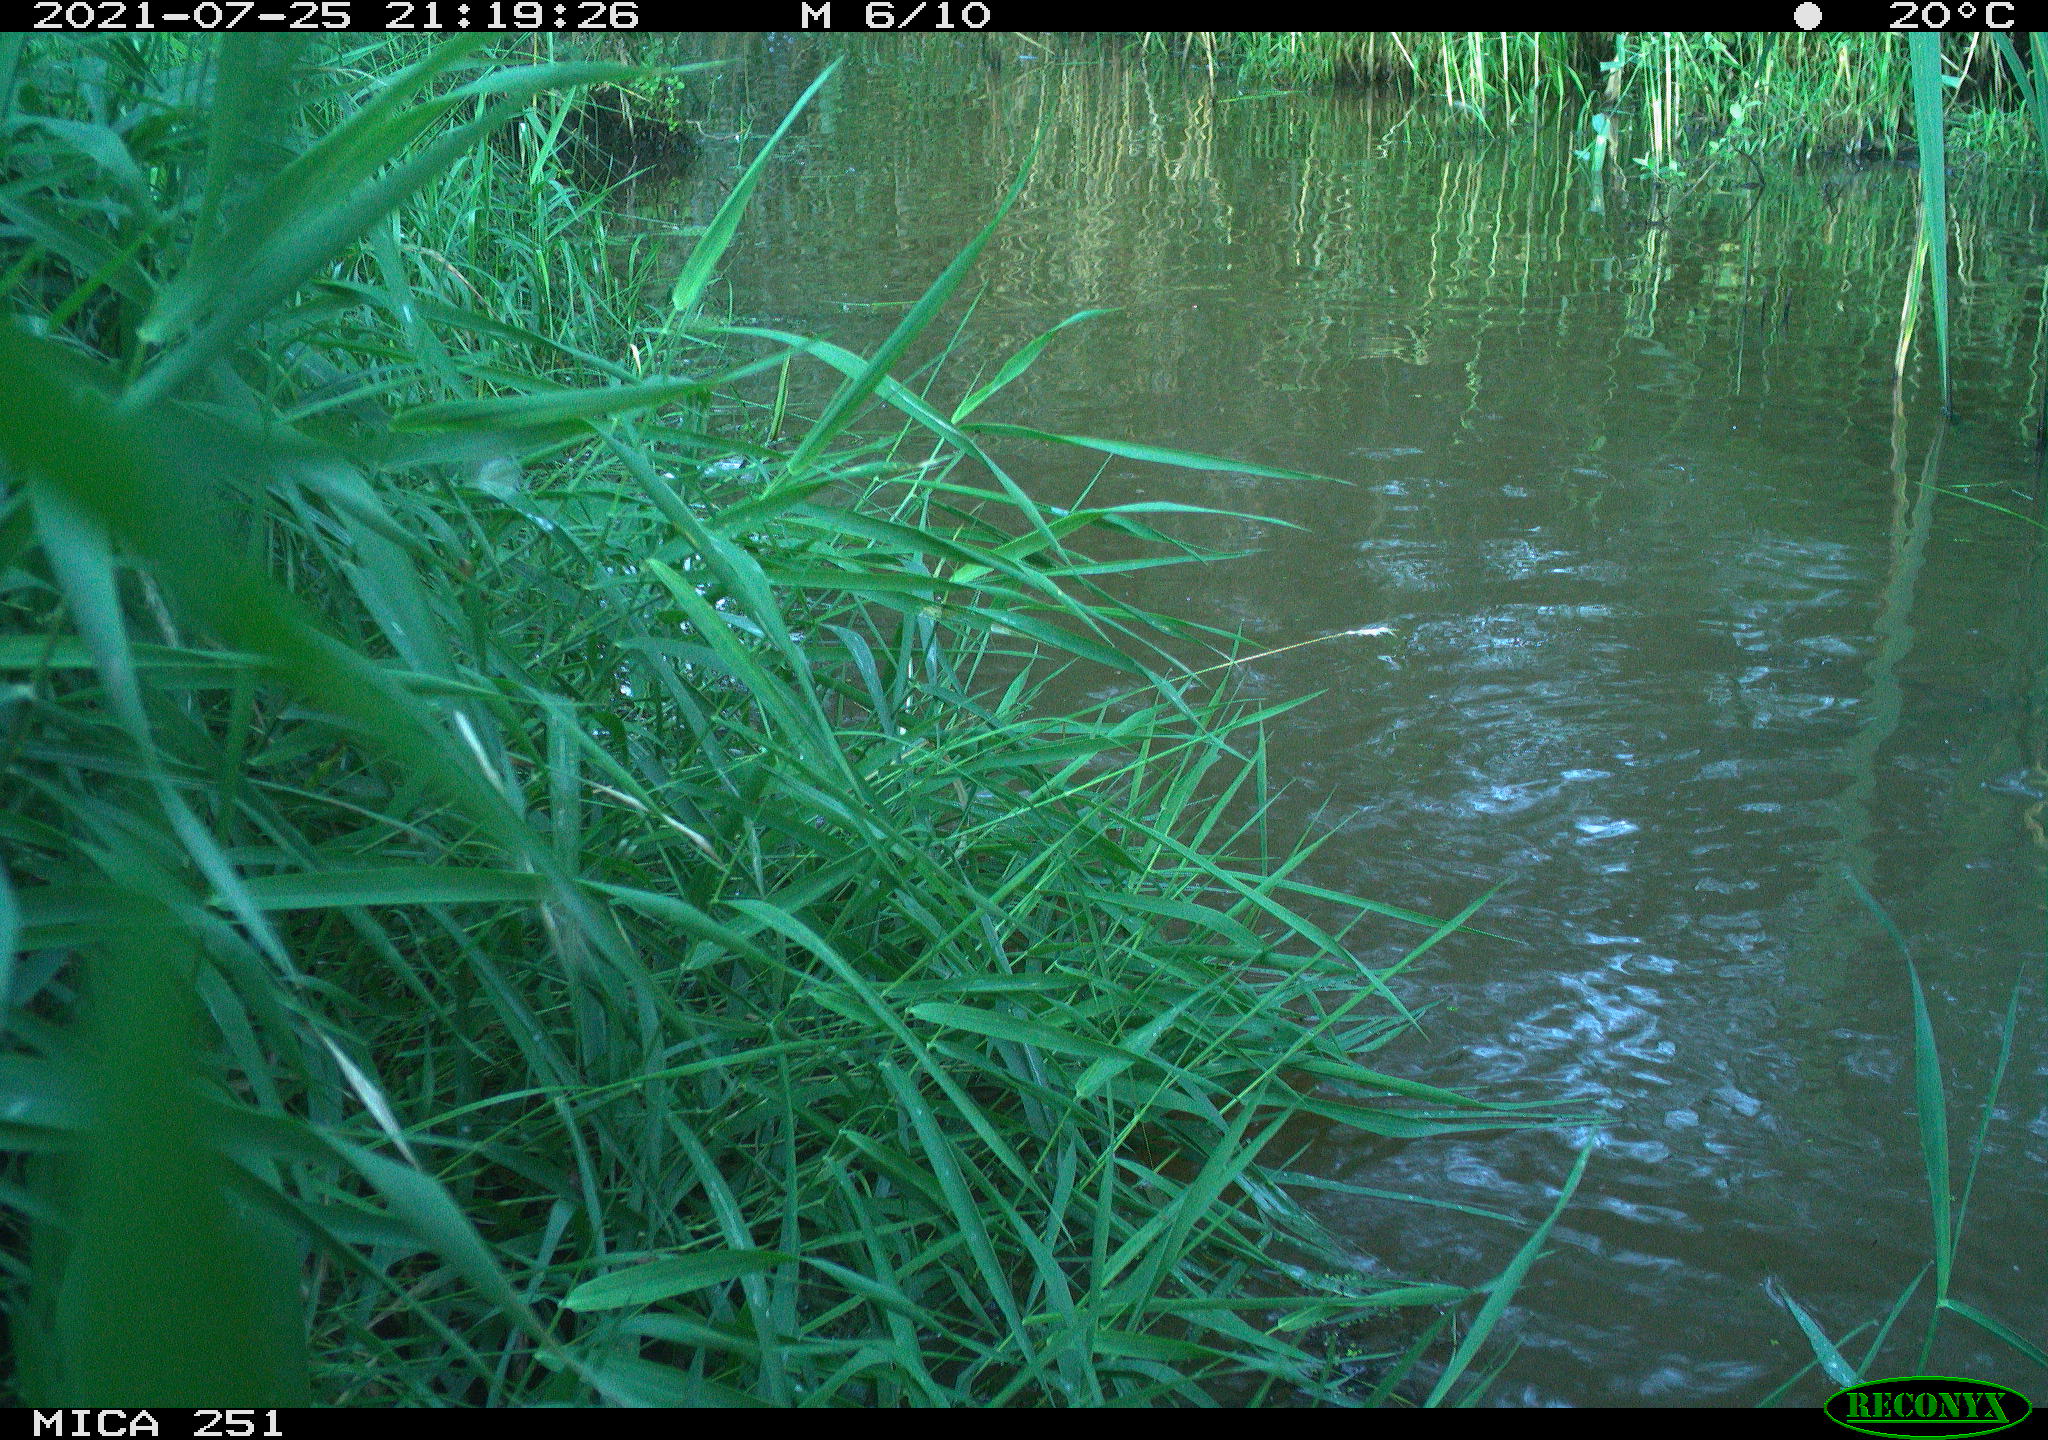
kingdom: Animalia
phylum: Chordata
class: Aves
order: Anseriformes
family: Anatidae
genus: Anser
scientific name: Anser anser
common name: Greylag goose
